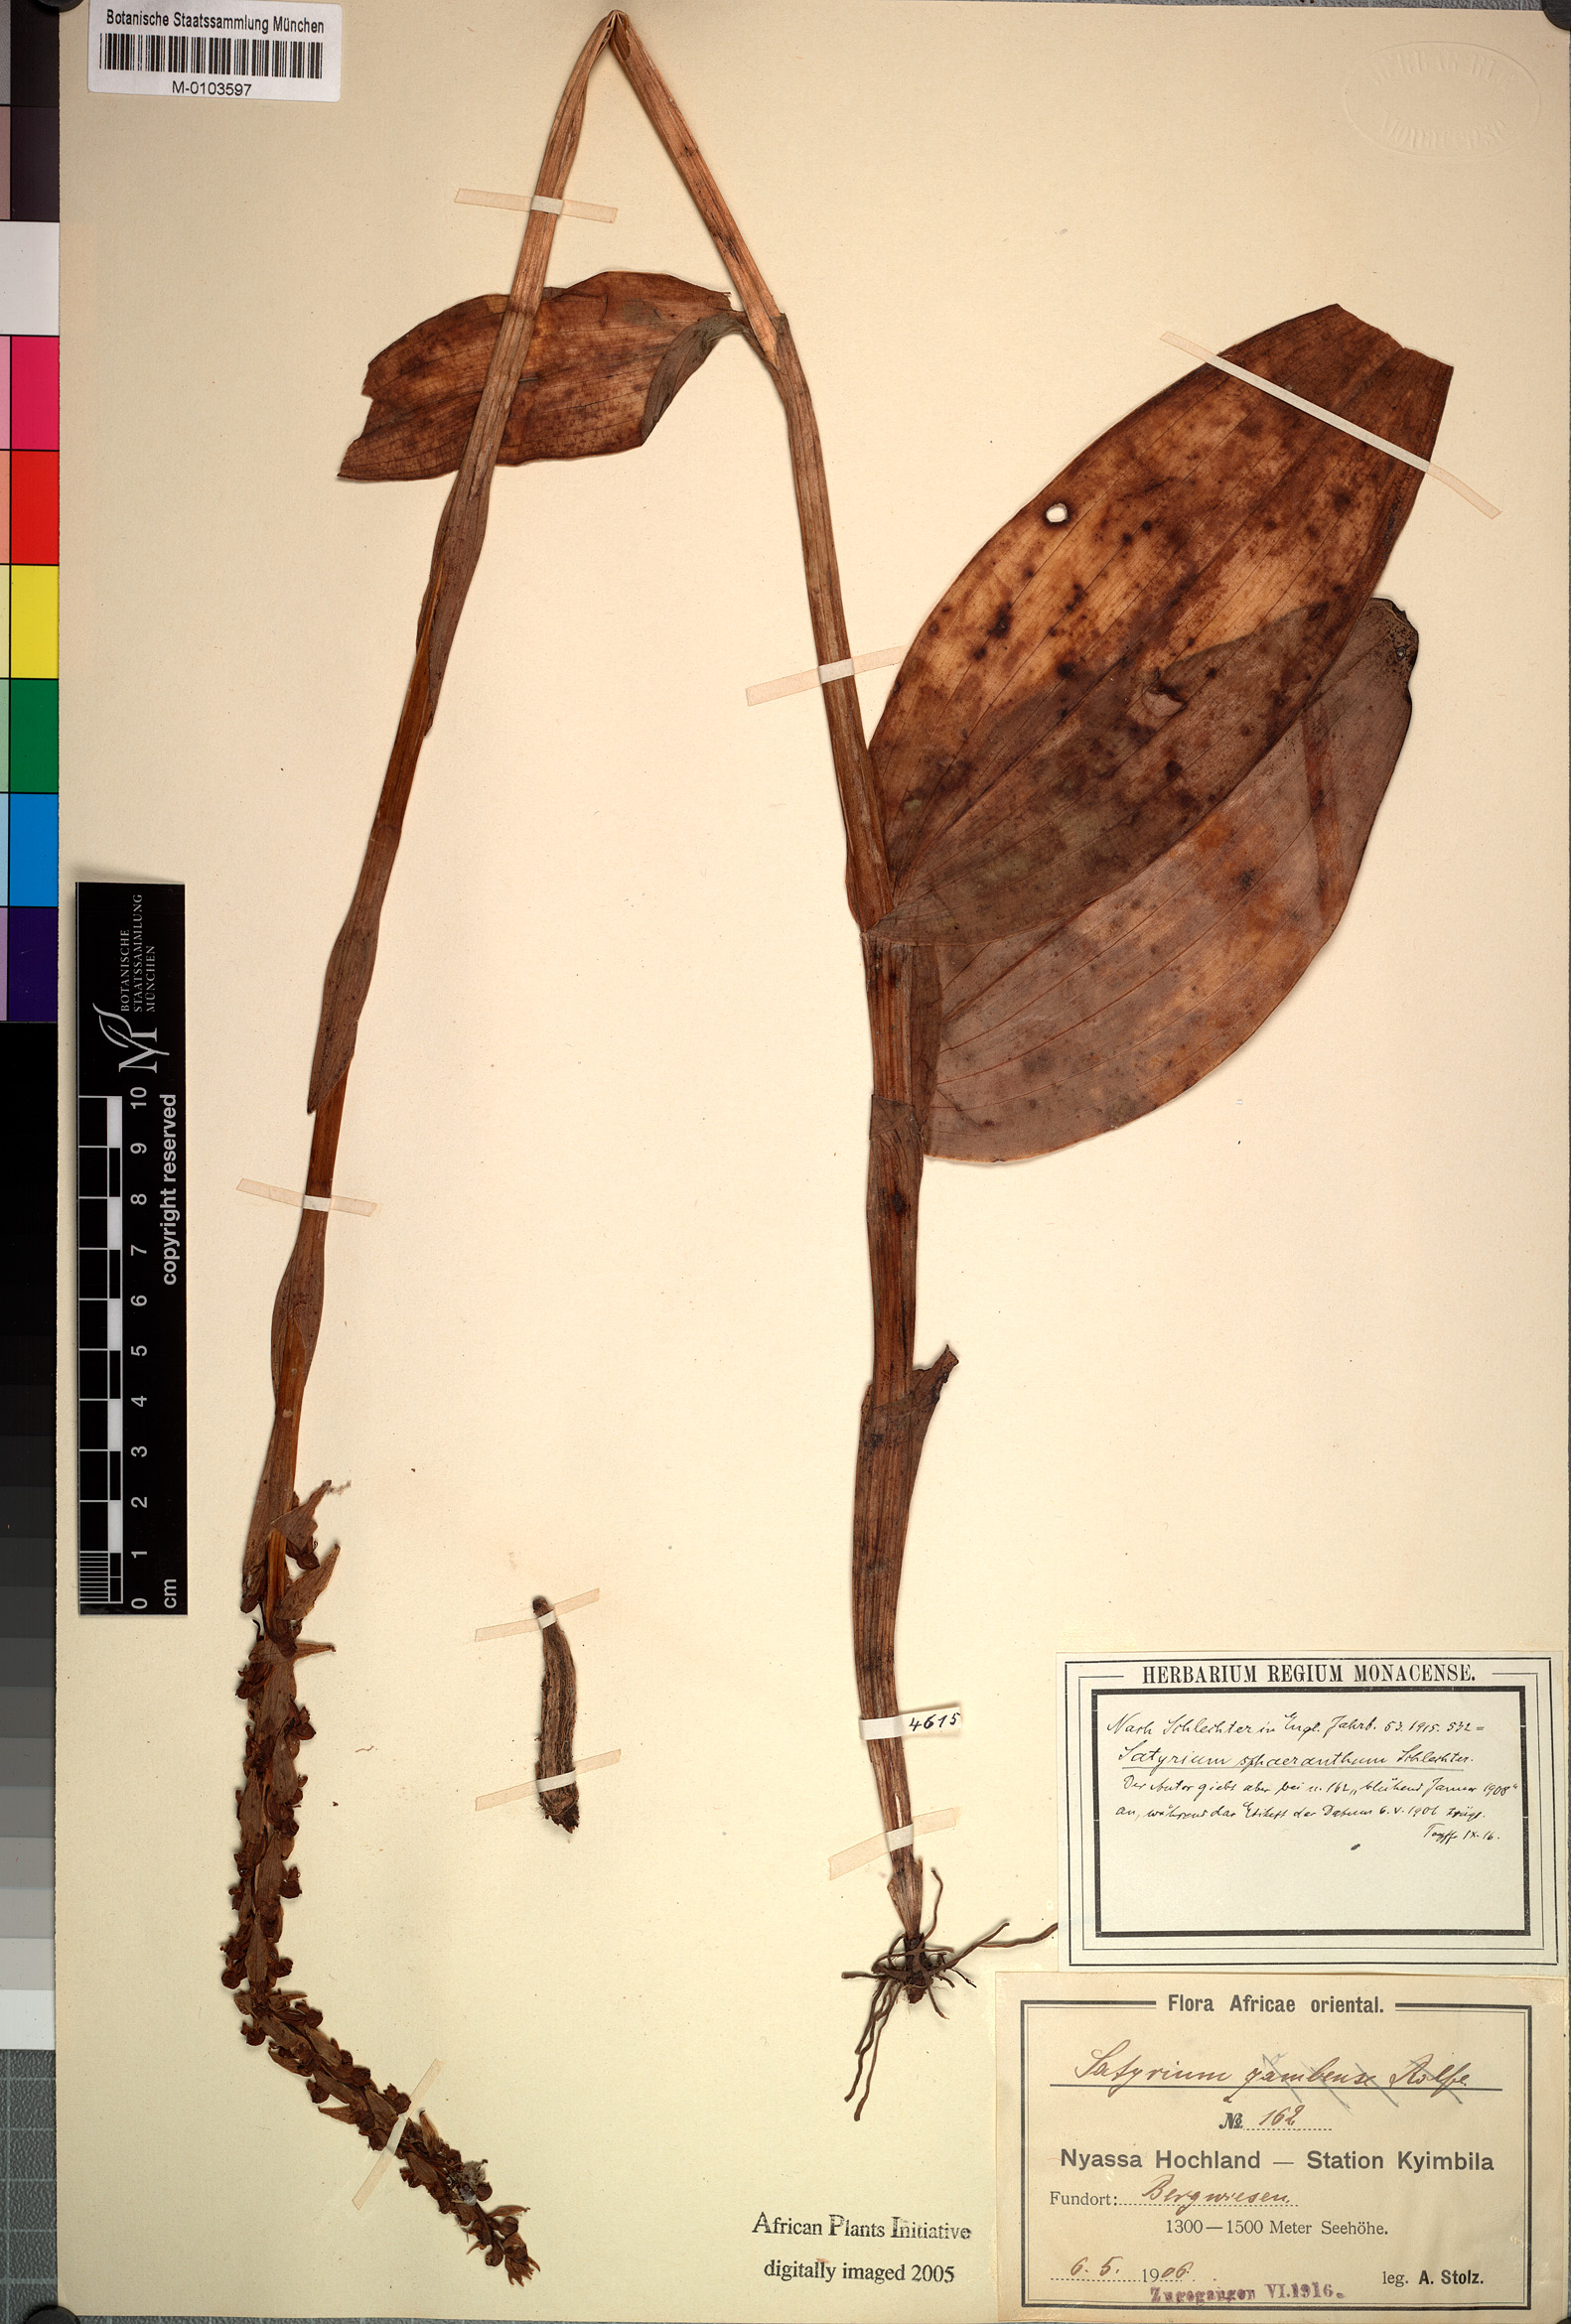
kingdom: Plantae
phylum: Tracheophyta
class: Liliopsida
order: Asparagales
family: Orchidaceae
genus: Satyrium
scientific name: Satyrium sphaeranthum
